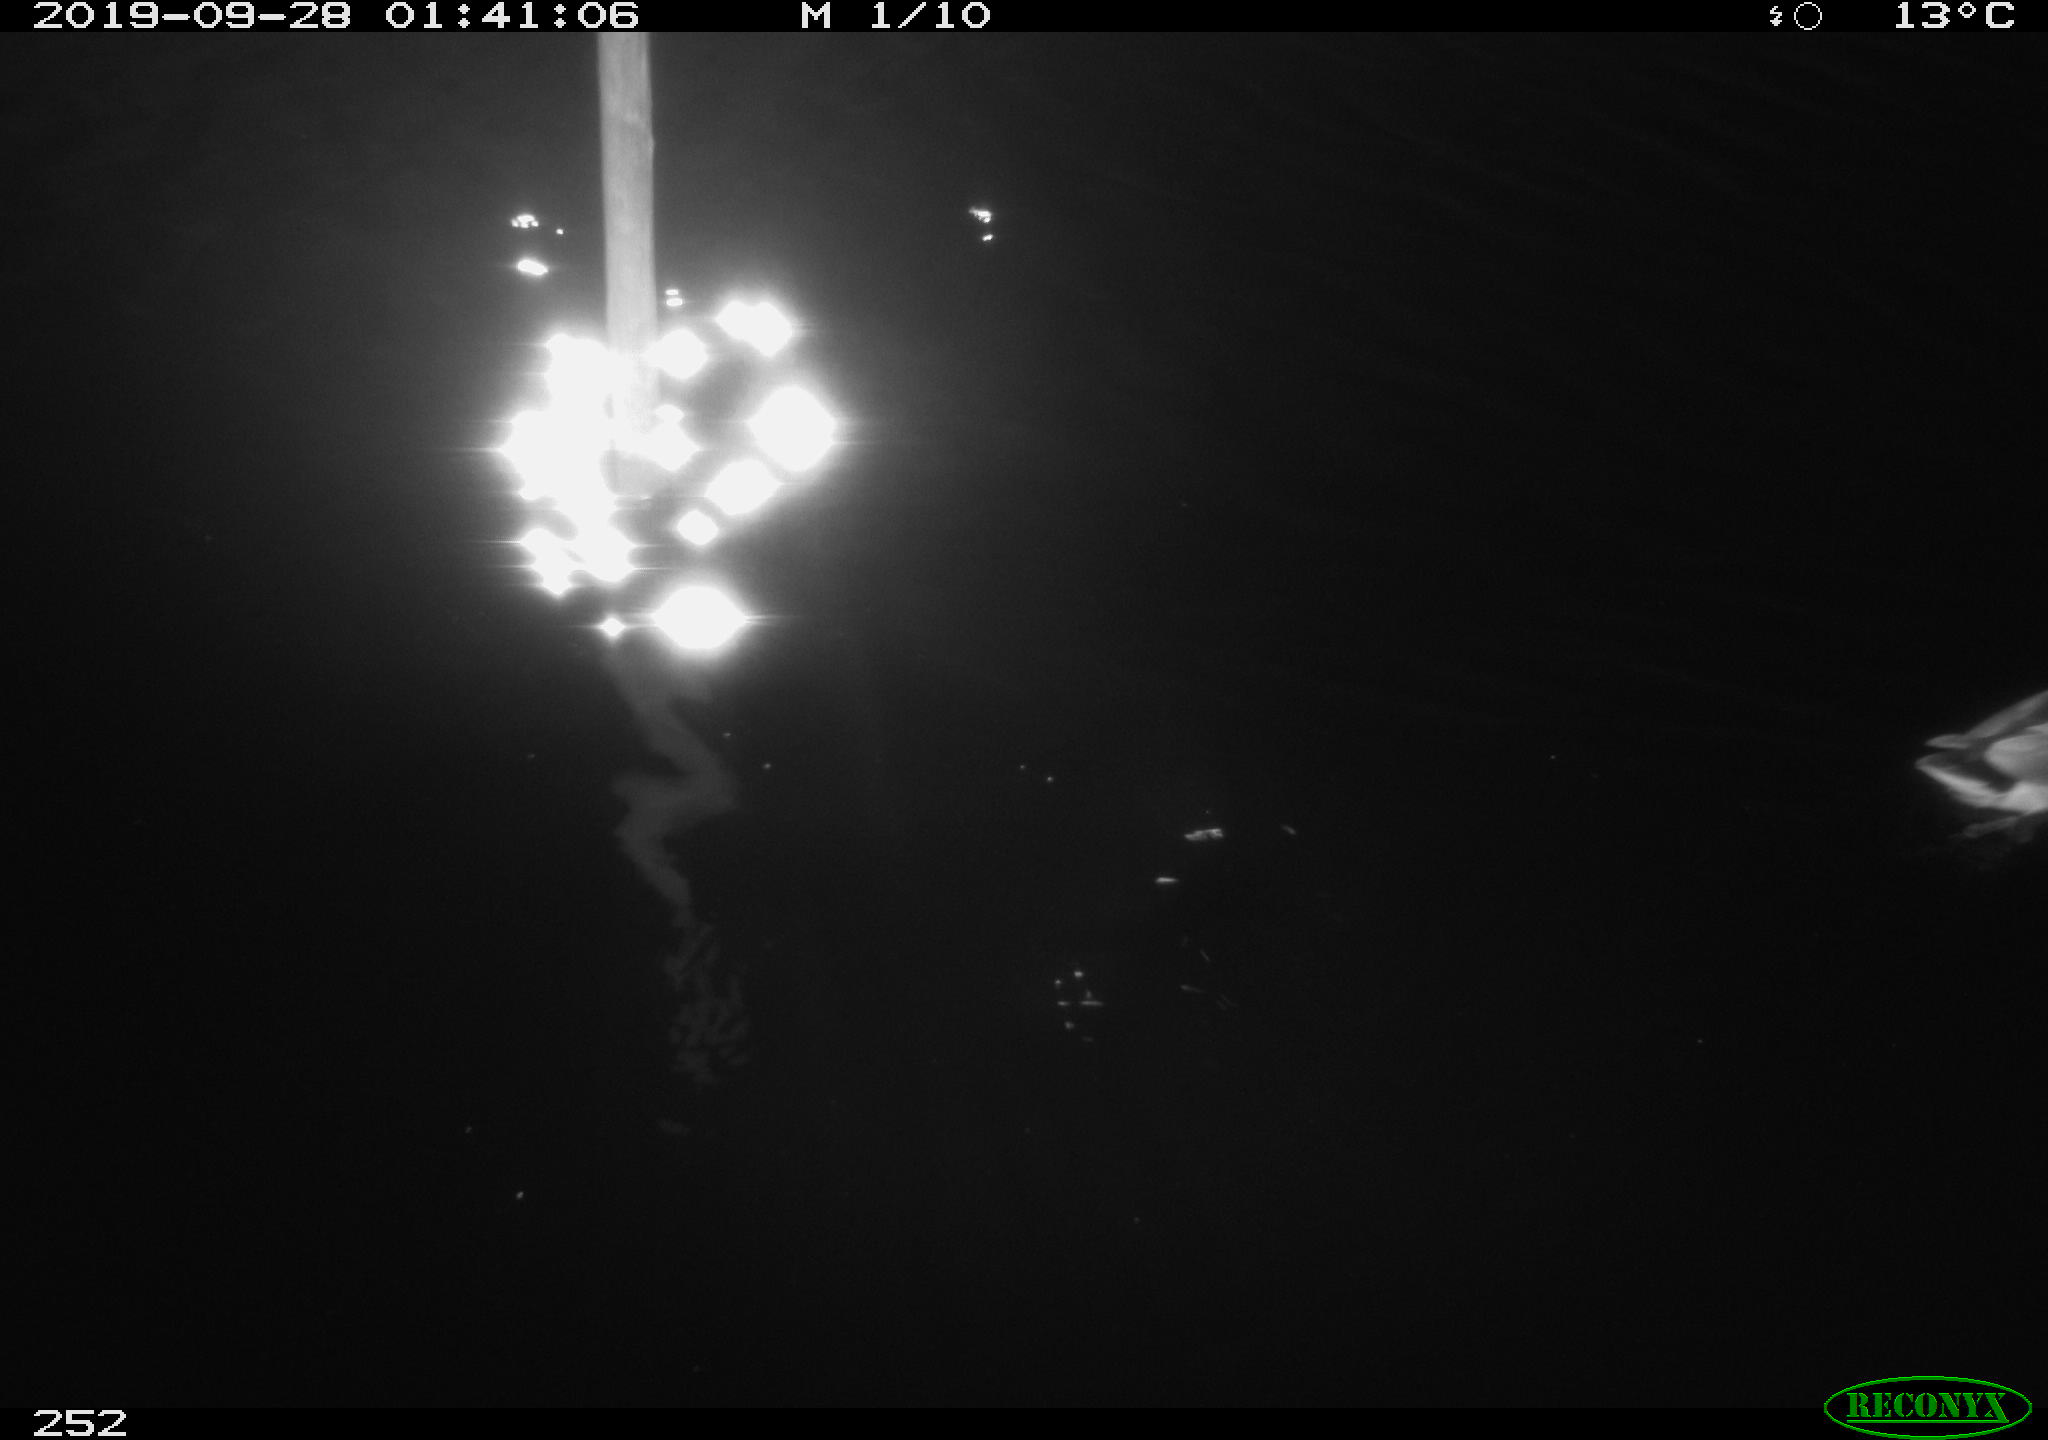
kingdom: Animalia
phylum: Chordata
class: Aves
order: Anseriformes
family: Anatidae
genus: Anas
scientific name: Anas platyrhynchos
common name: Mallard
